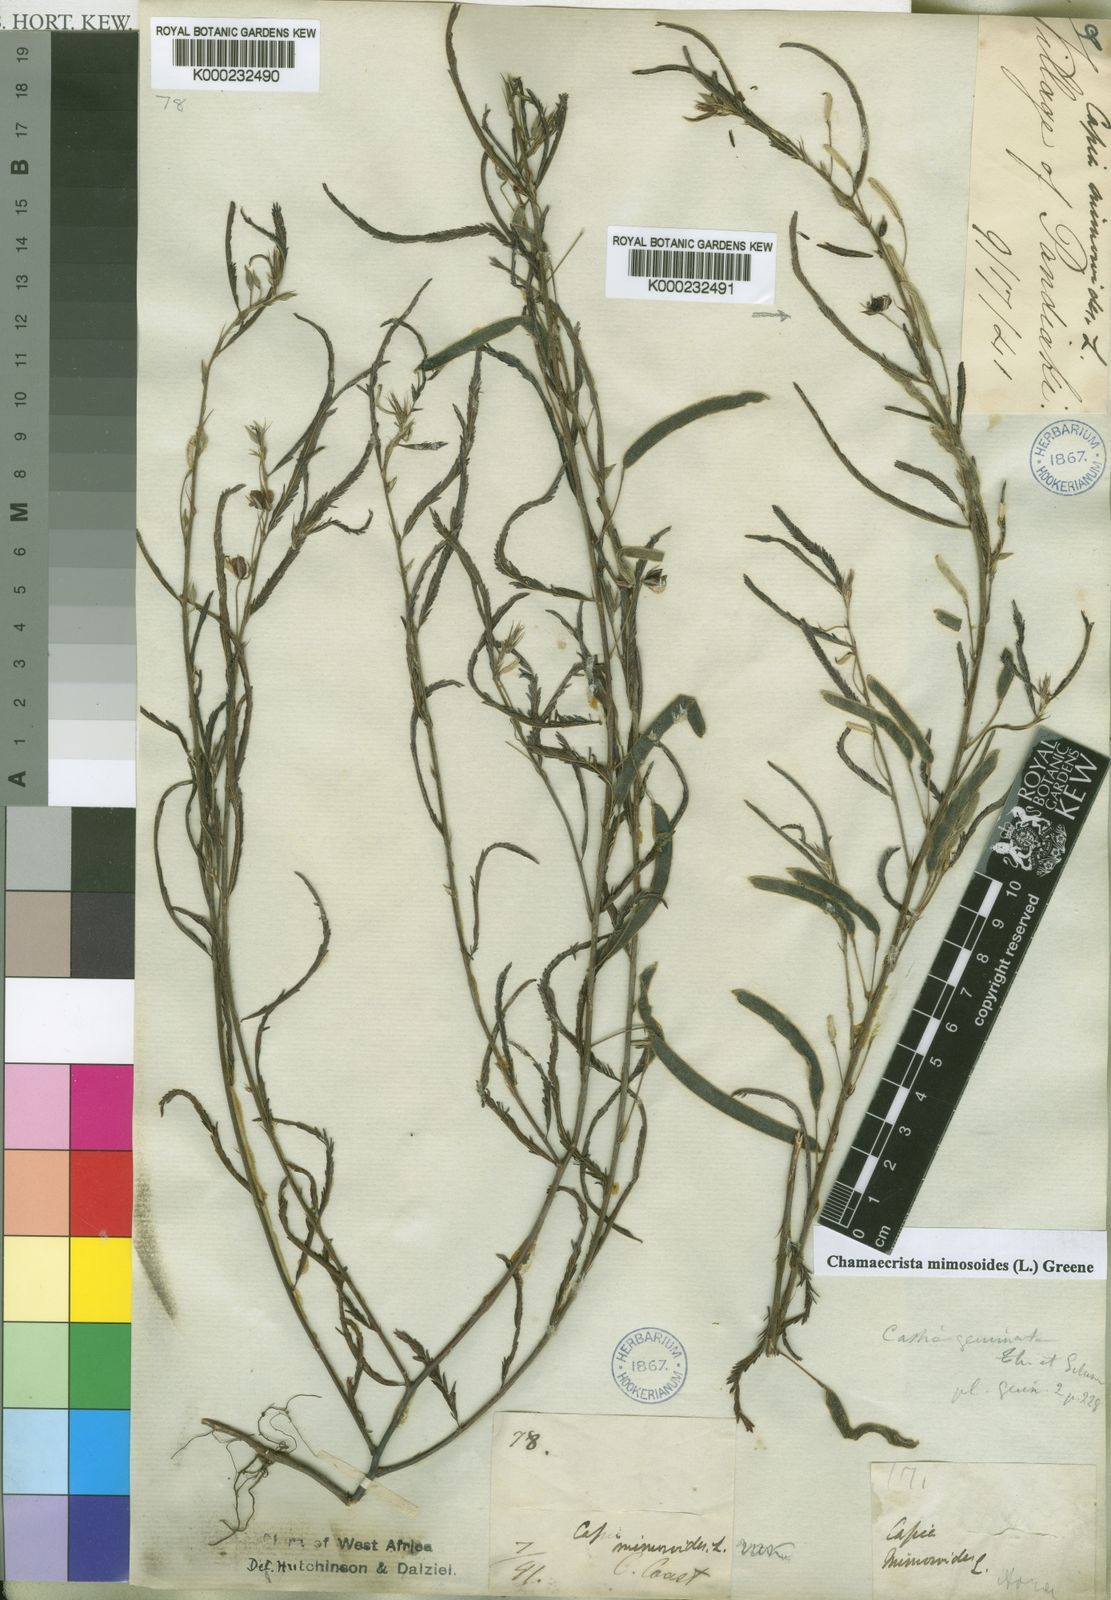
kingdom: Plantae
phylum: Tracheophyta
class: Magnoliopsida
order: Fabales
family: Fabaceae
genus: Chamaecrista
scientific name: Chamaecrista mimosoides
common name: Fish-bone cassia
